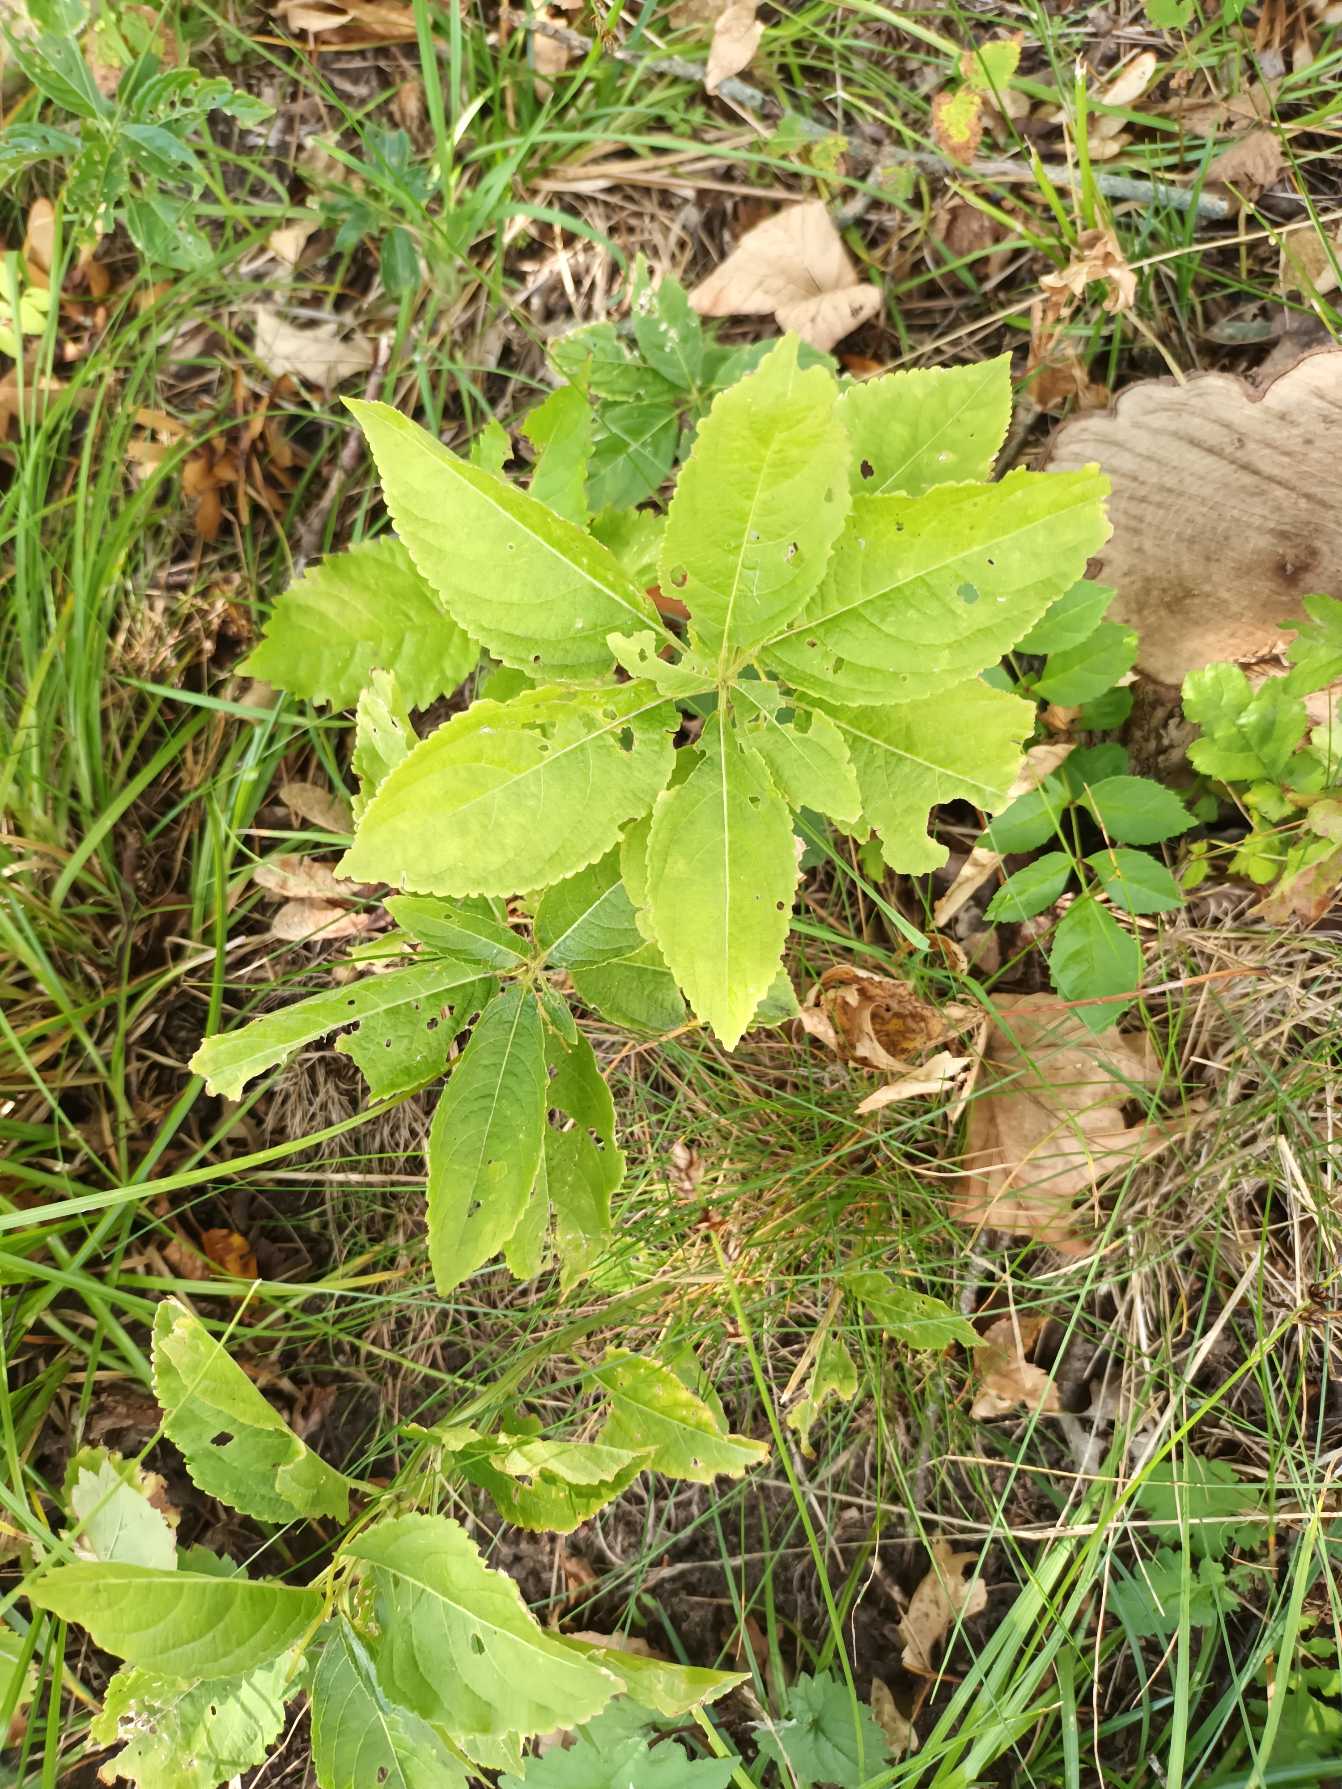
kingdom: Plantae
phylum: Tracheophyta
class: Magnoliopsida
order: Malpighiales
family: Euphorbiaceae
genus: Mercurialis
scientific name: Mercurialis perennis
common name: Almindelig bingelurt
